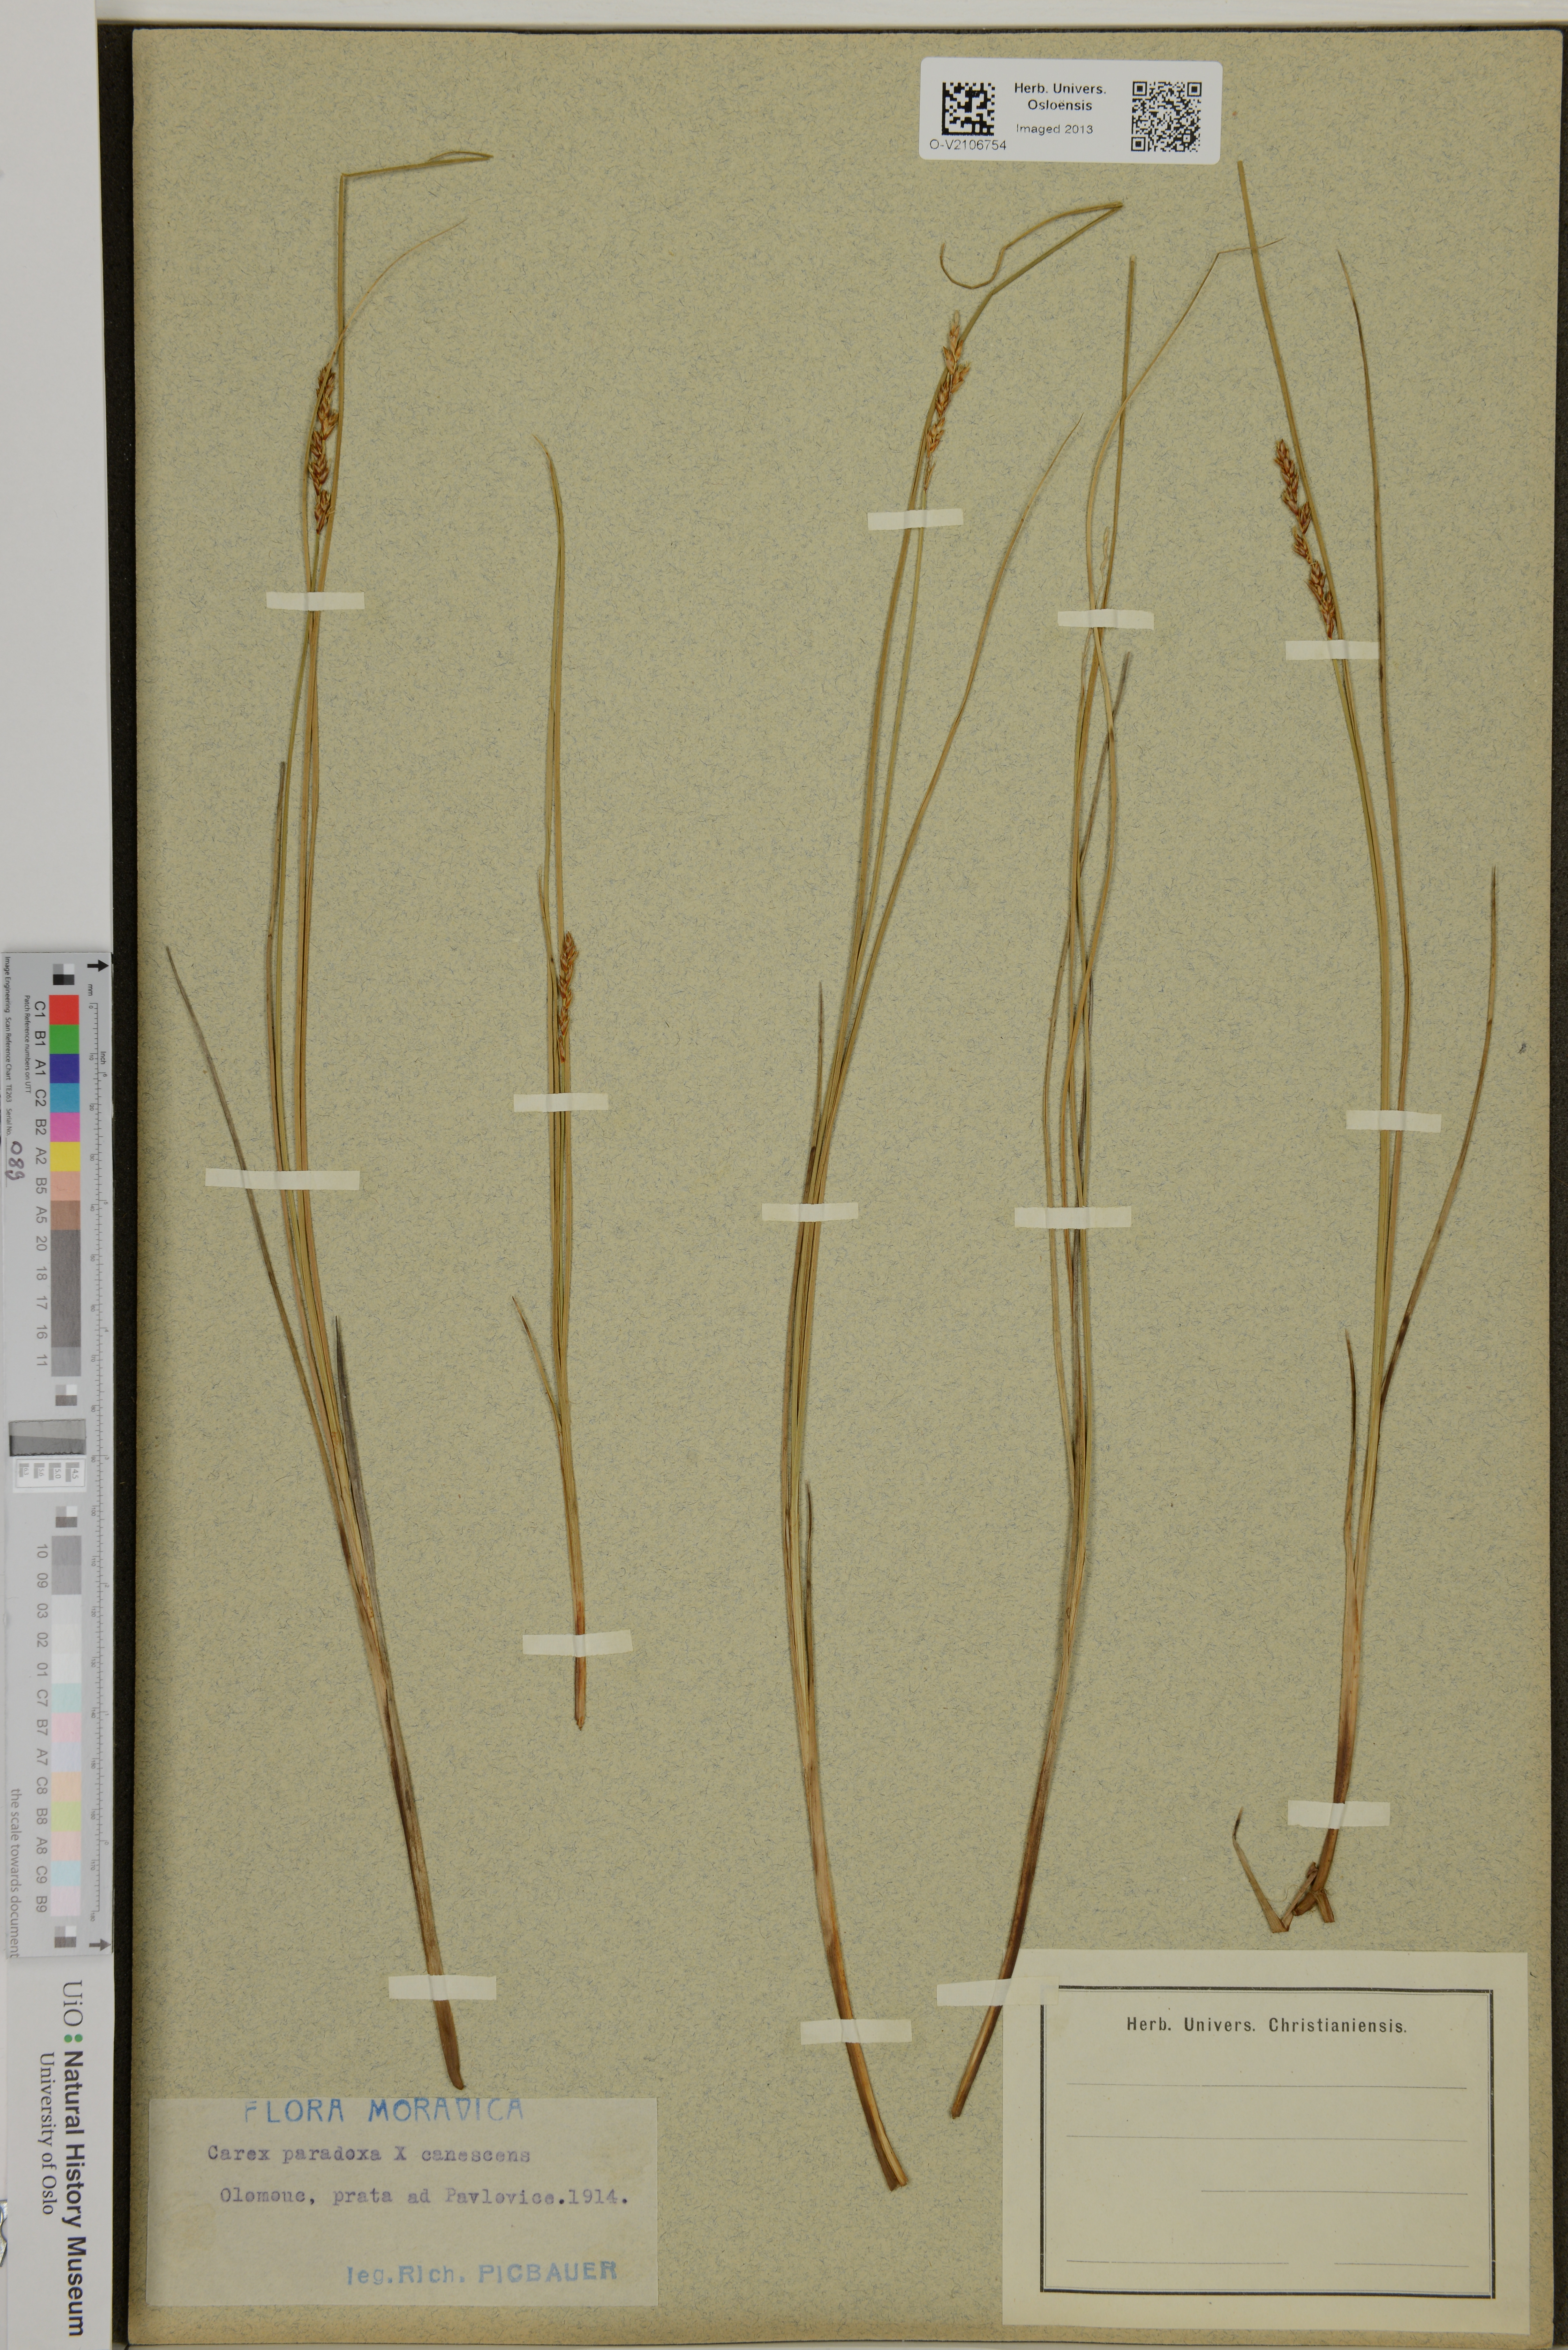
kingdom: Plantae
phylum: Tracheophyta
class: Liliopsida
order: Poales
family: Cyperaceae
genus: Carex
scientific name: Carex
